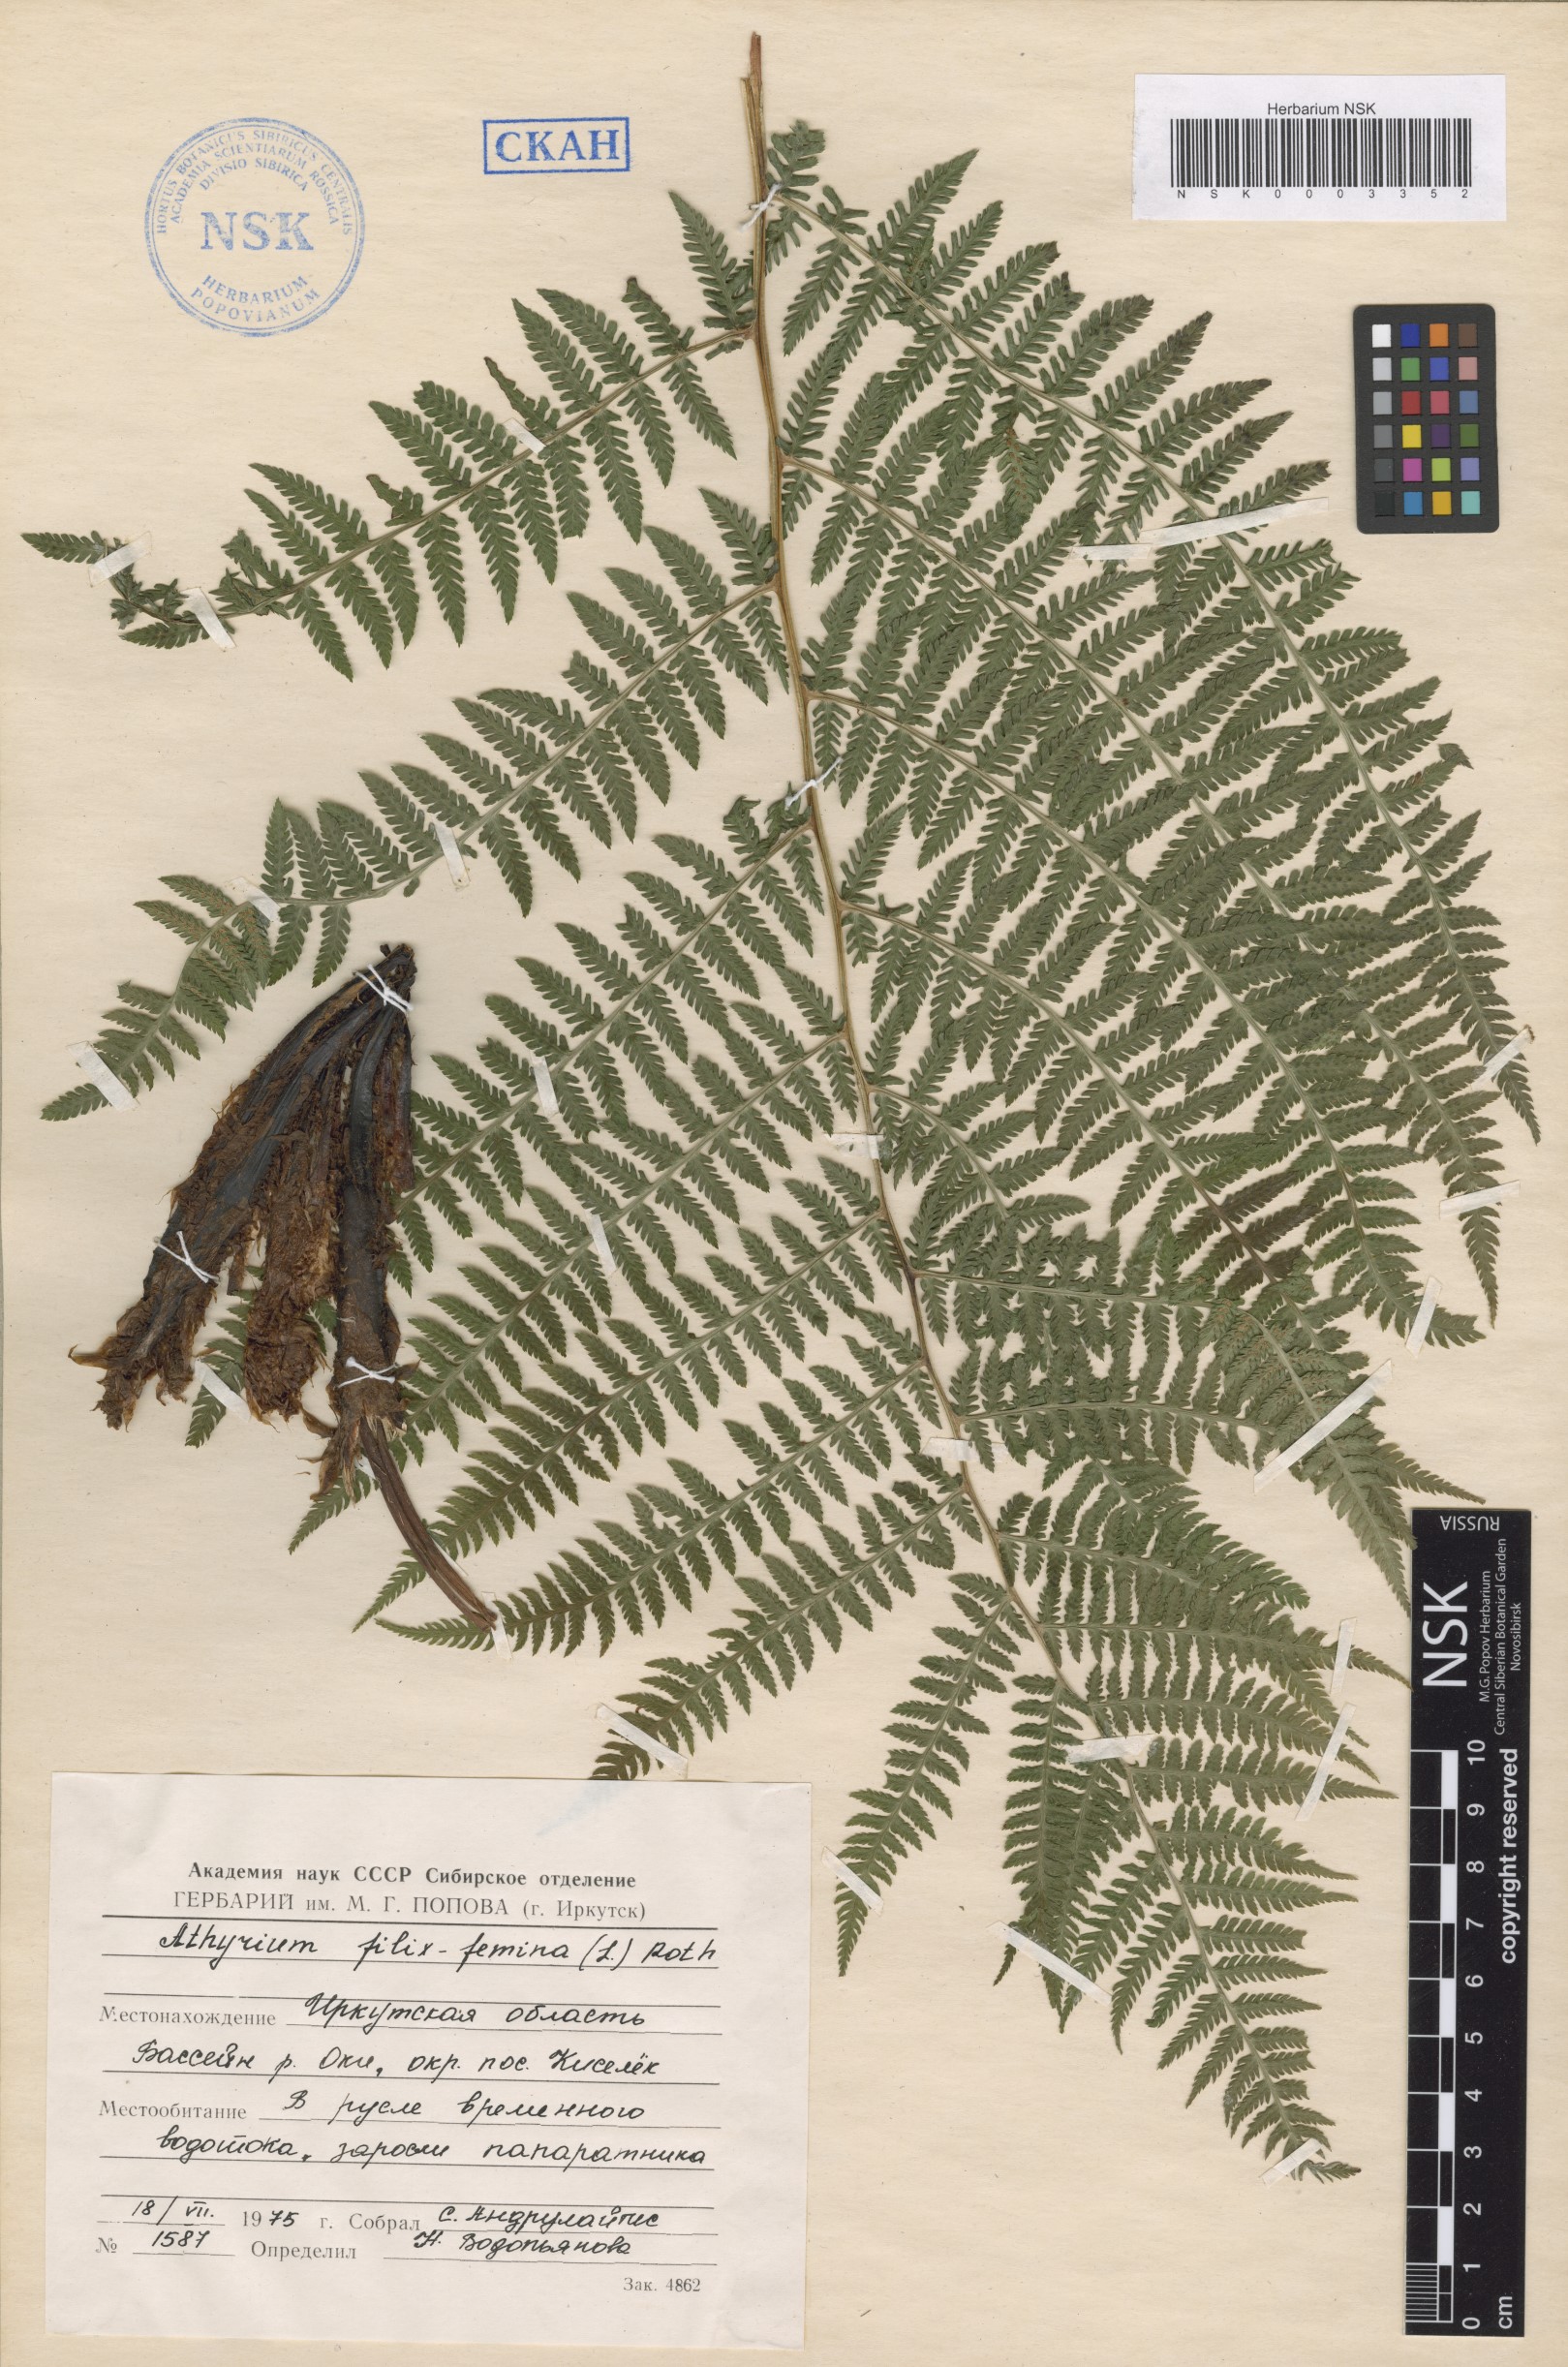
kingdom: Plantae
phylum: Tracheophyta
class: Polypodiopsida
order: Polypodiales
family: Athyriaceae
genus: Athyrium
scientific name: Athyrium filix-femina
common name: Lady fern
